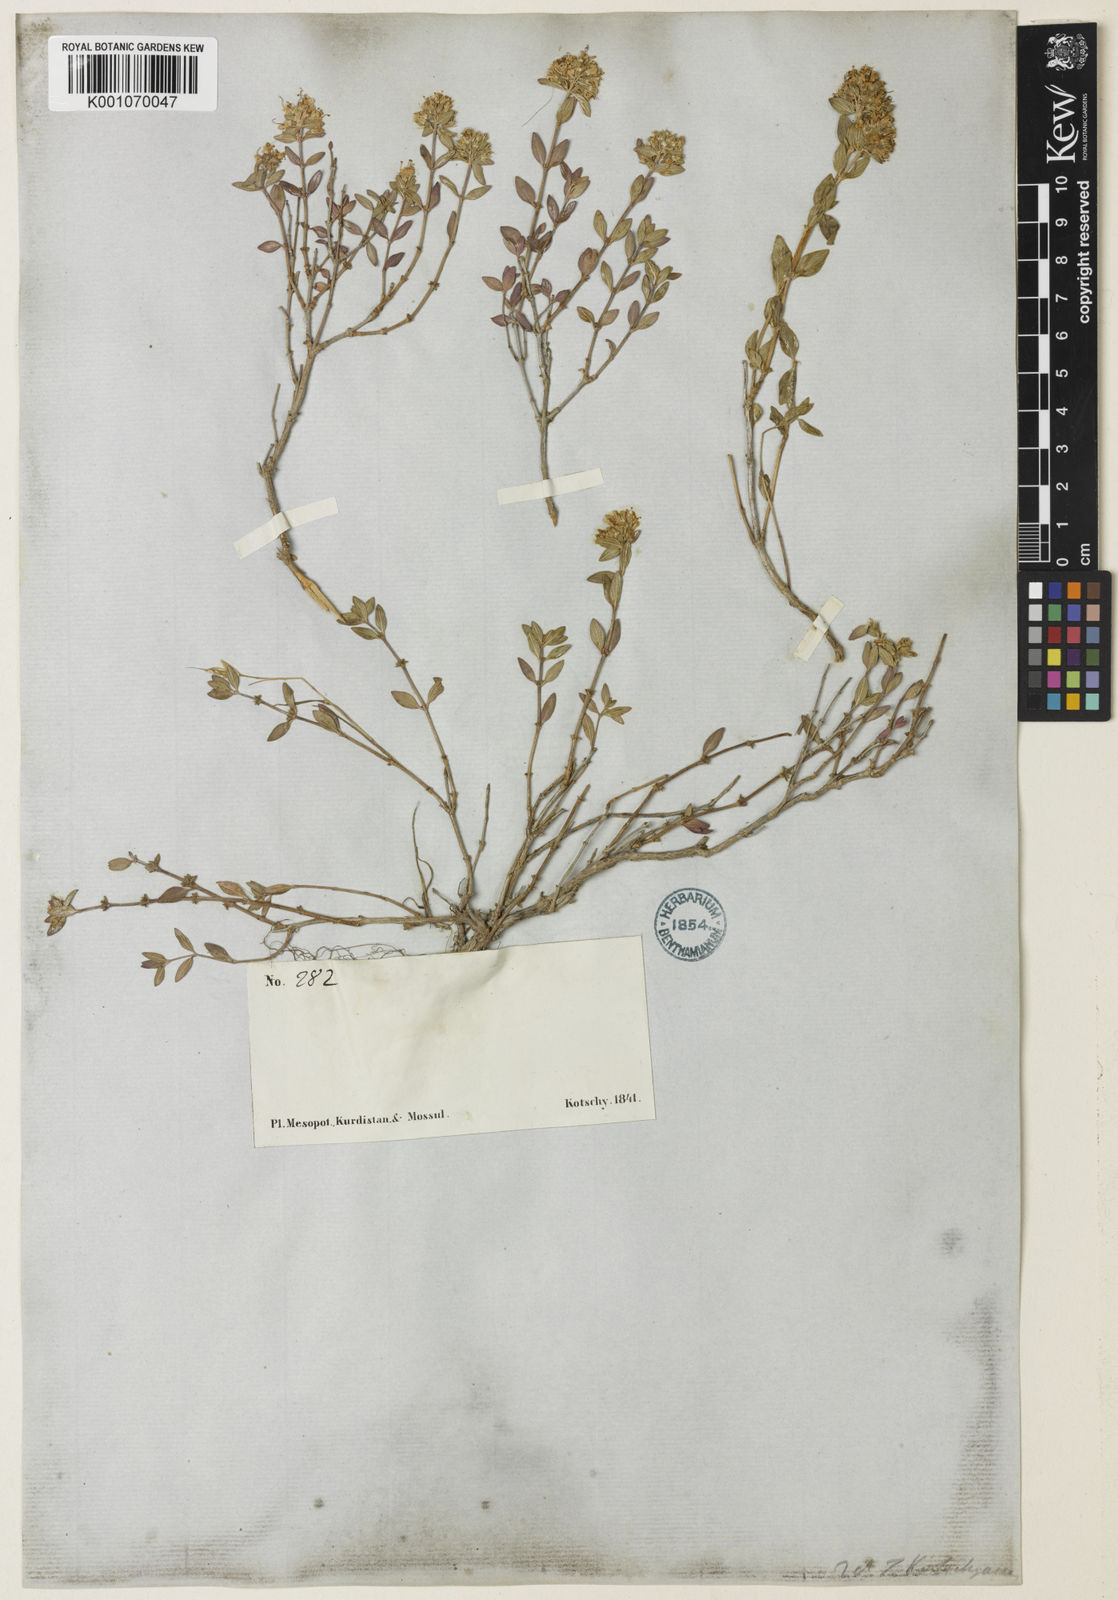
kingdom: Plantae
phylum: Tracheophyta
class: Magnoliopsida
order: Lamiales
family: Lamiaceae
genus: Thymus
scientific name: Thymus serpyllum
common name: Breckland thyme
